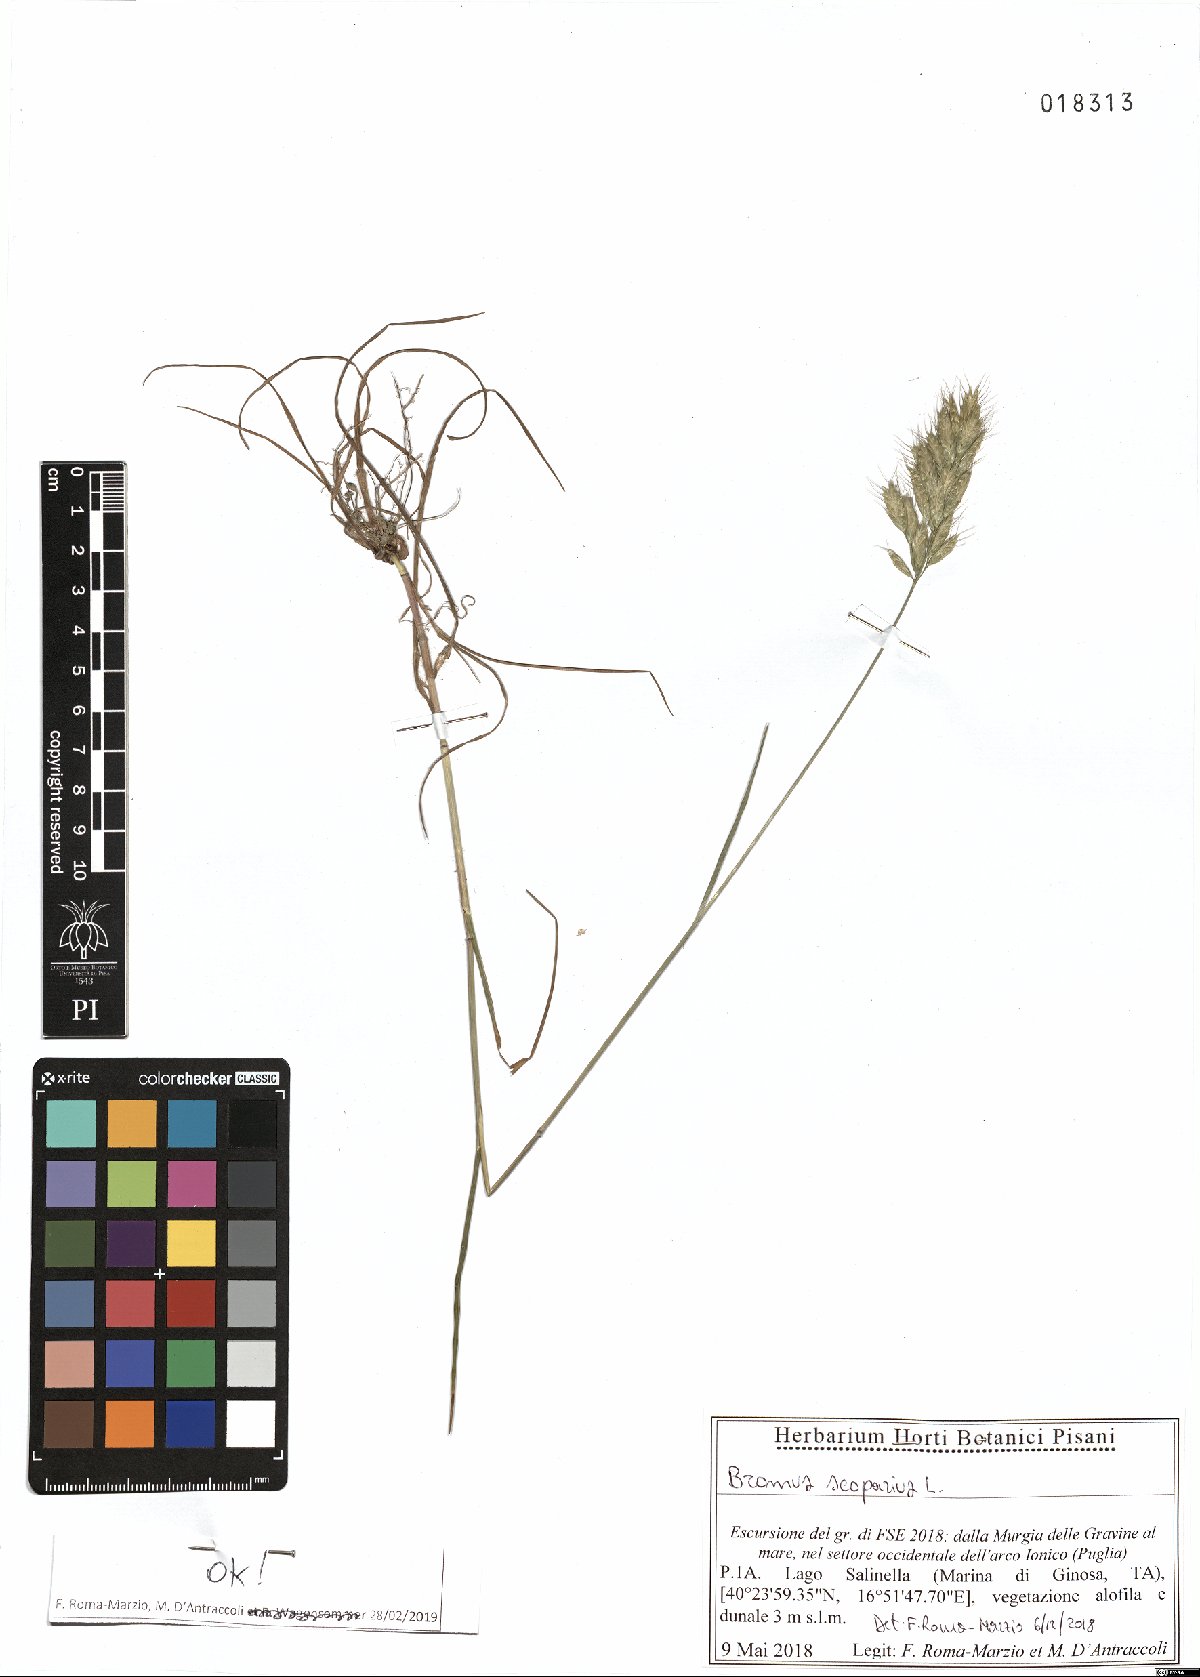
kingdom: Plantae
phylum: Tracheophyta
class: Liliopsida
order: Poales
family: Poaceae
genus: Bromus
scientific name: Bromus scoparius
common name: Broom brome
